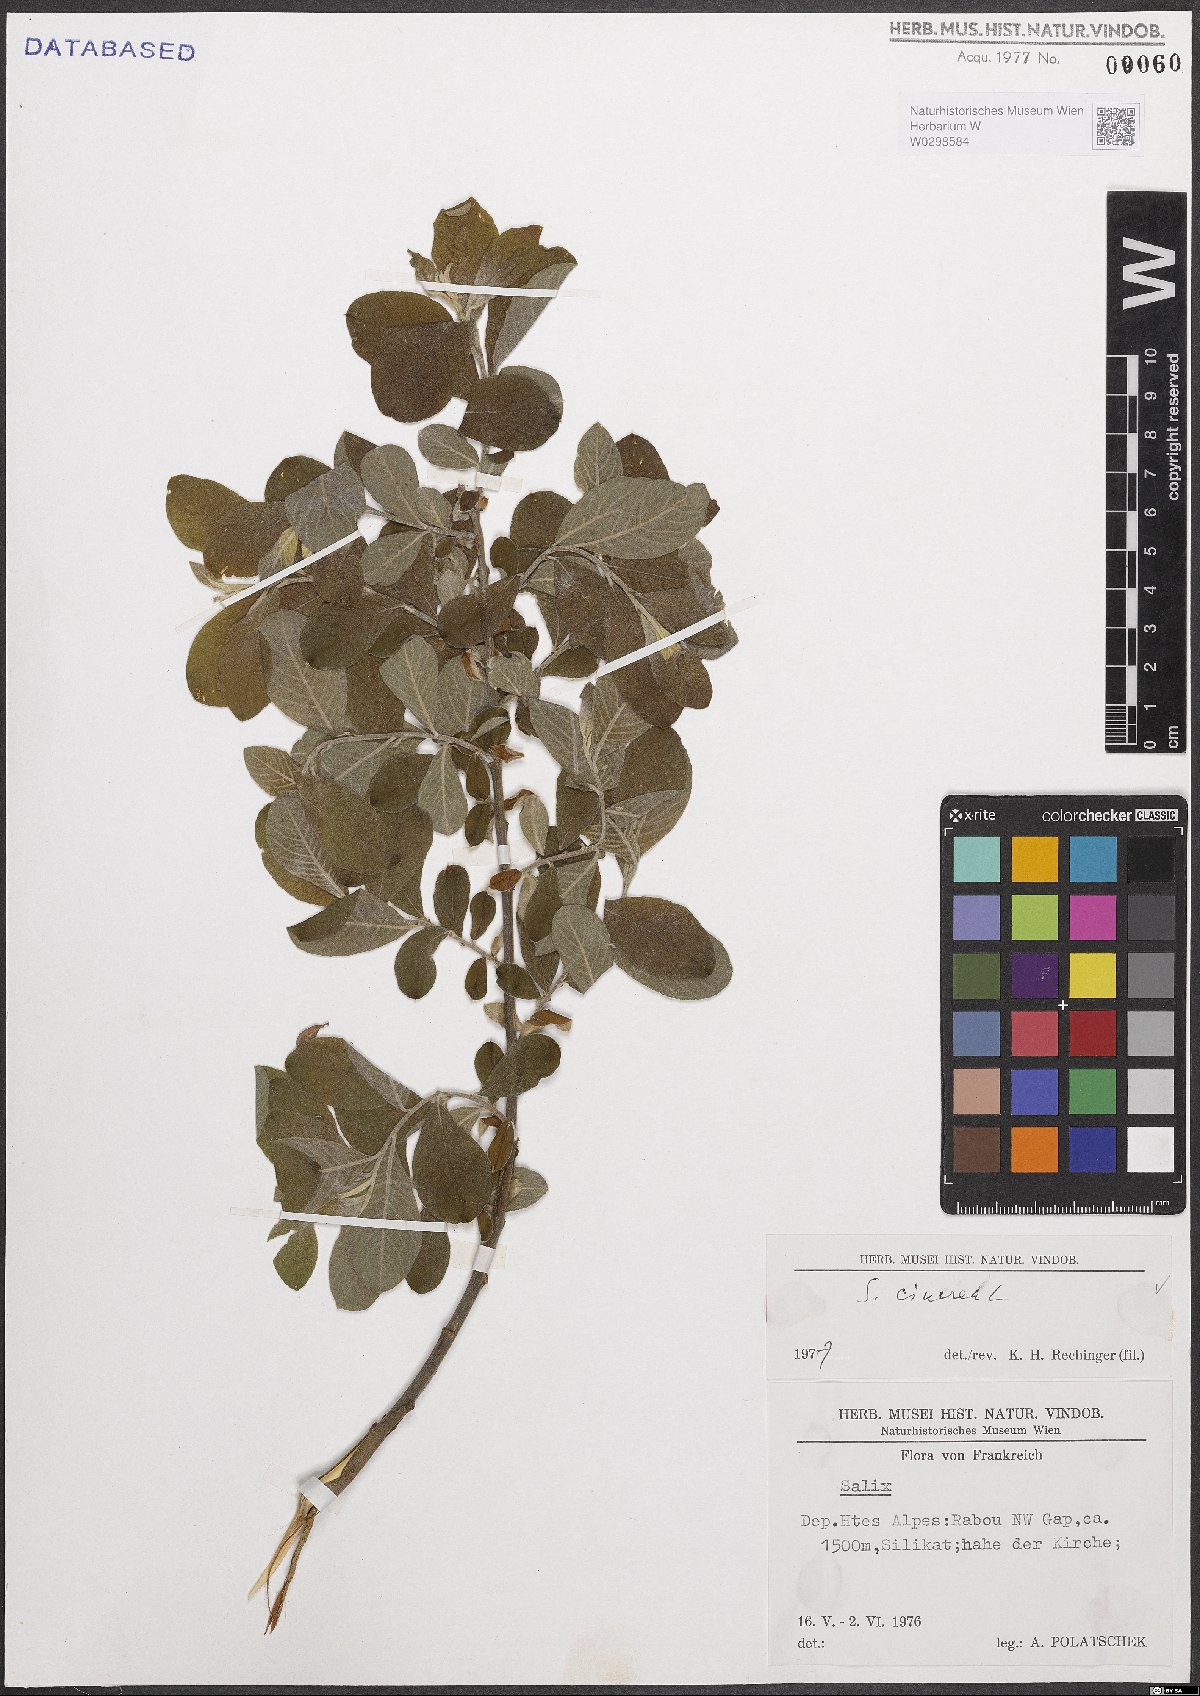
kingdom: Plantae
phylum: Tracheophyta
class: Magnoliopsida
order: Malpighiales
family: Salicaceae
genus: Salix
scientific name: Salix cinerea
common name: Common sallow
